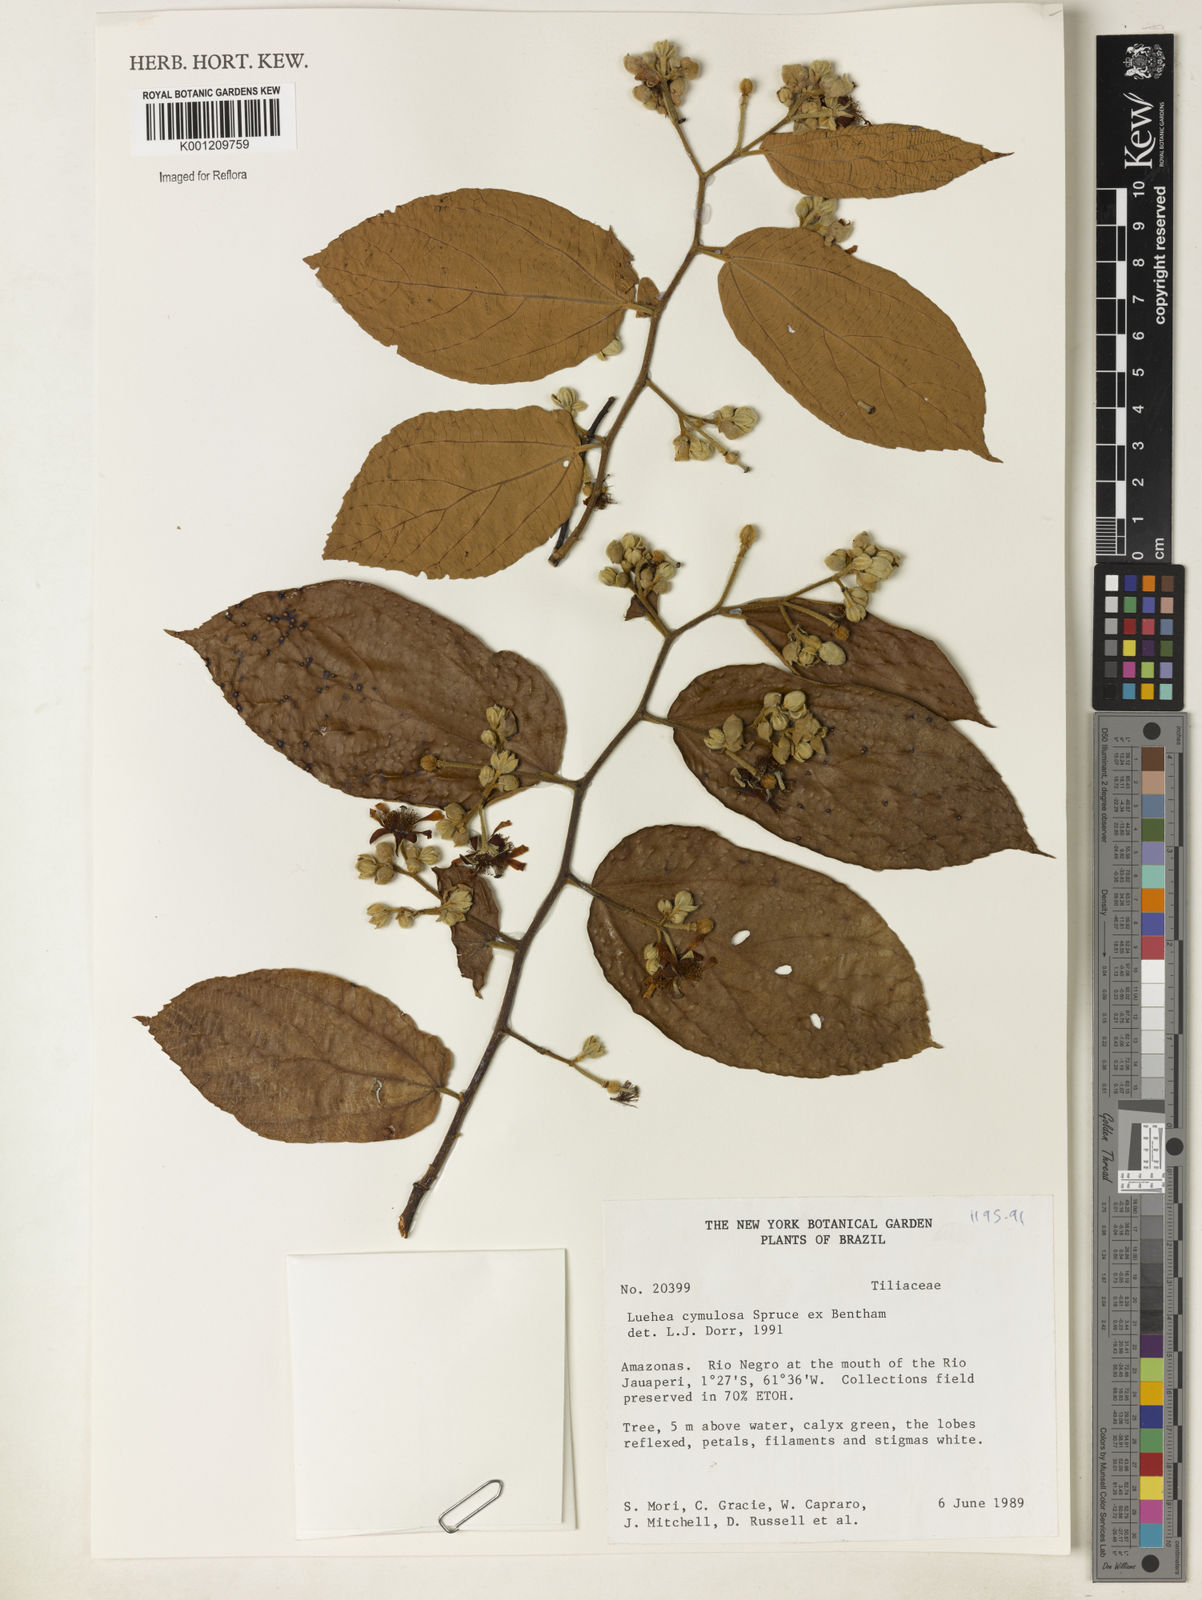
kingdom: Plantae
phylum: Tracheophyta
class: Magnoliopsida
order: Malvales
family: Malvaceae
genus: Luehea
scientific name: Luehea cymulosa
